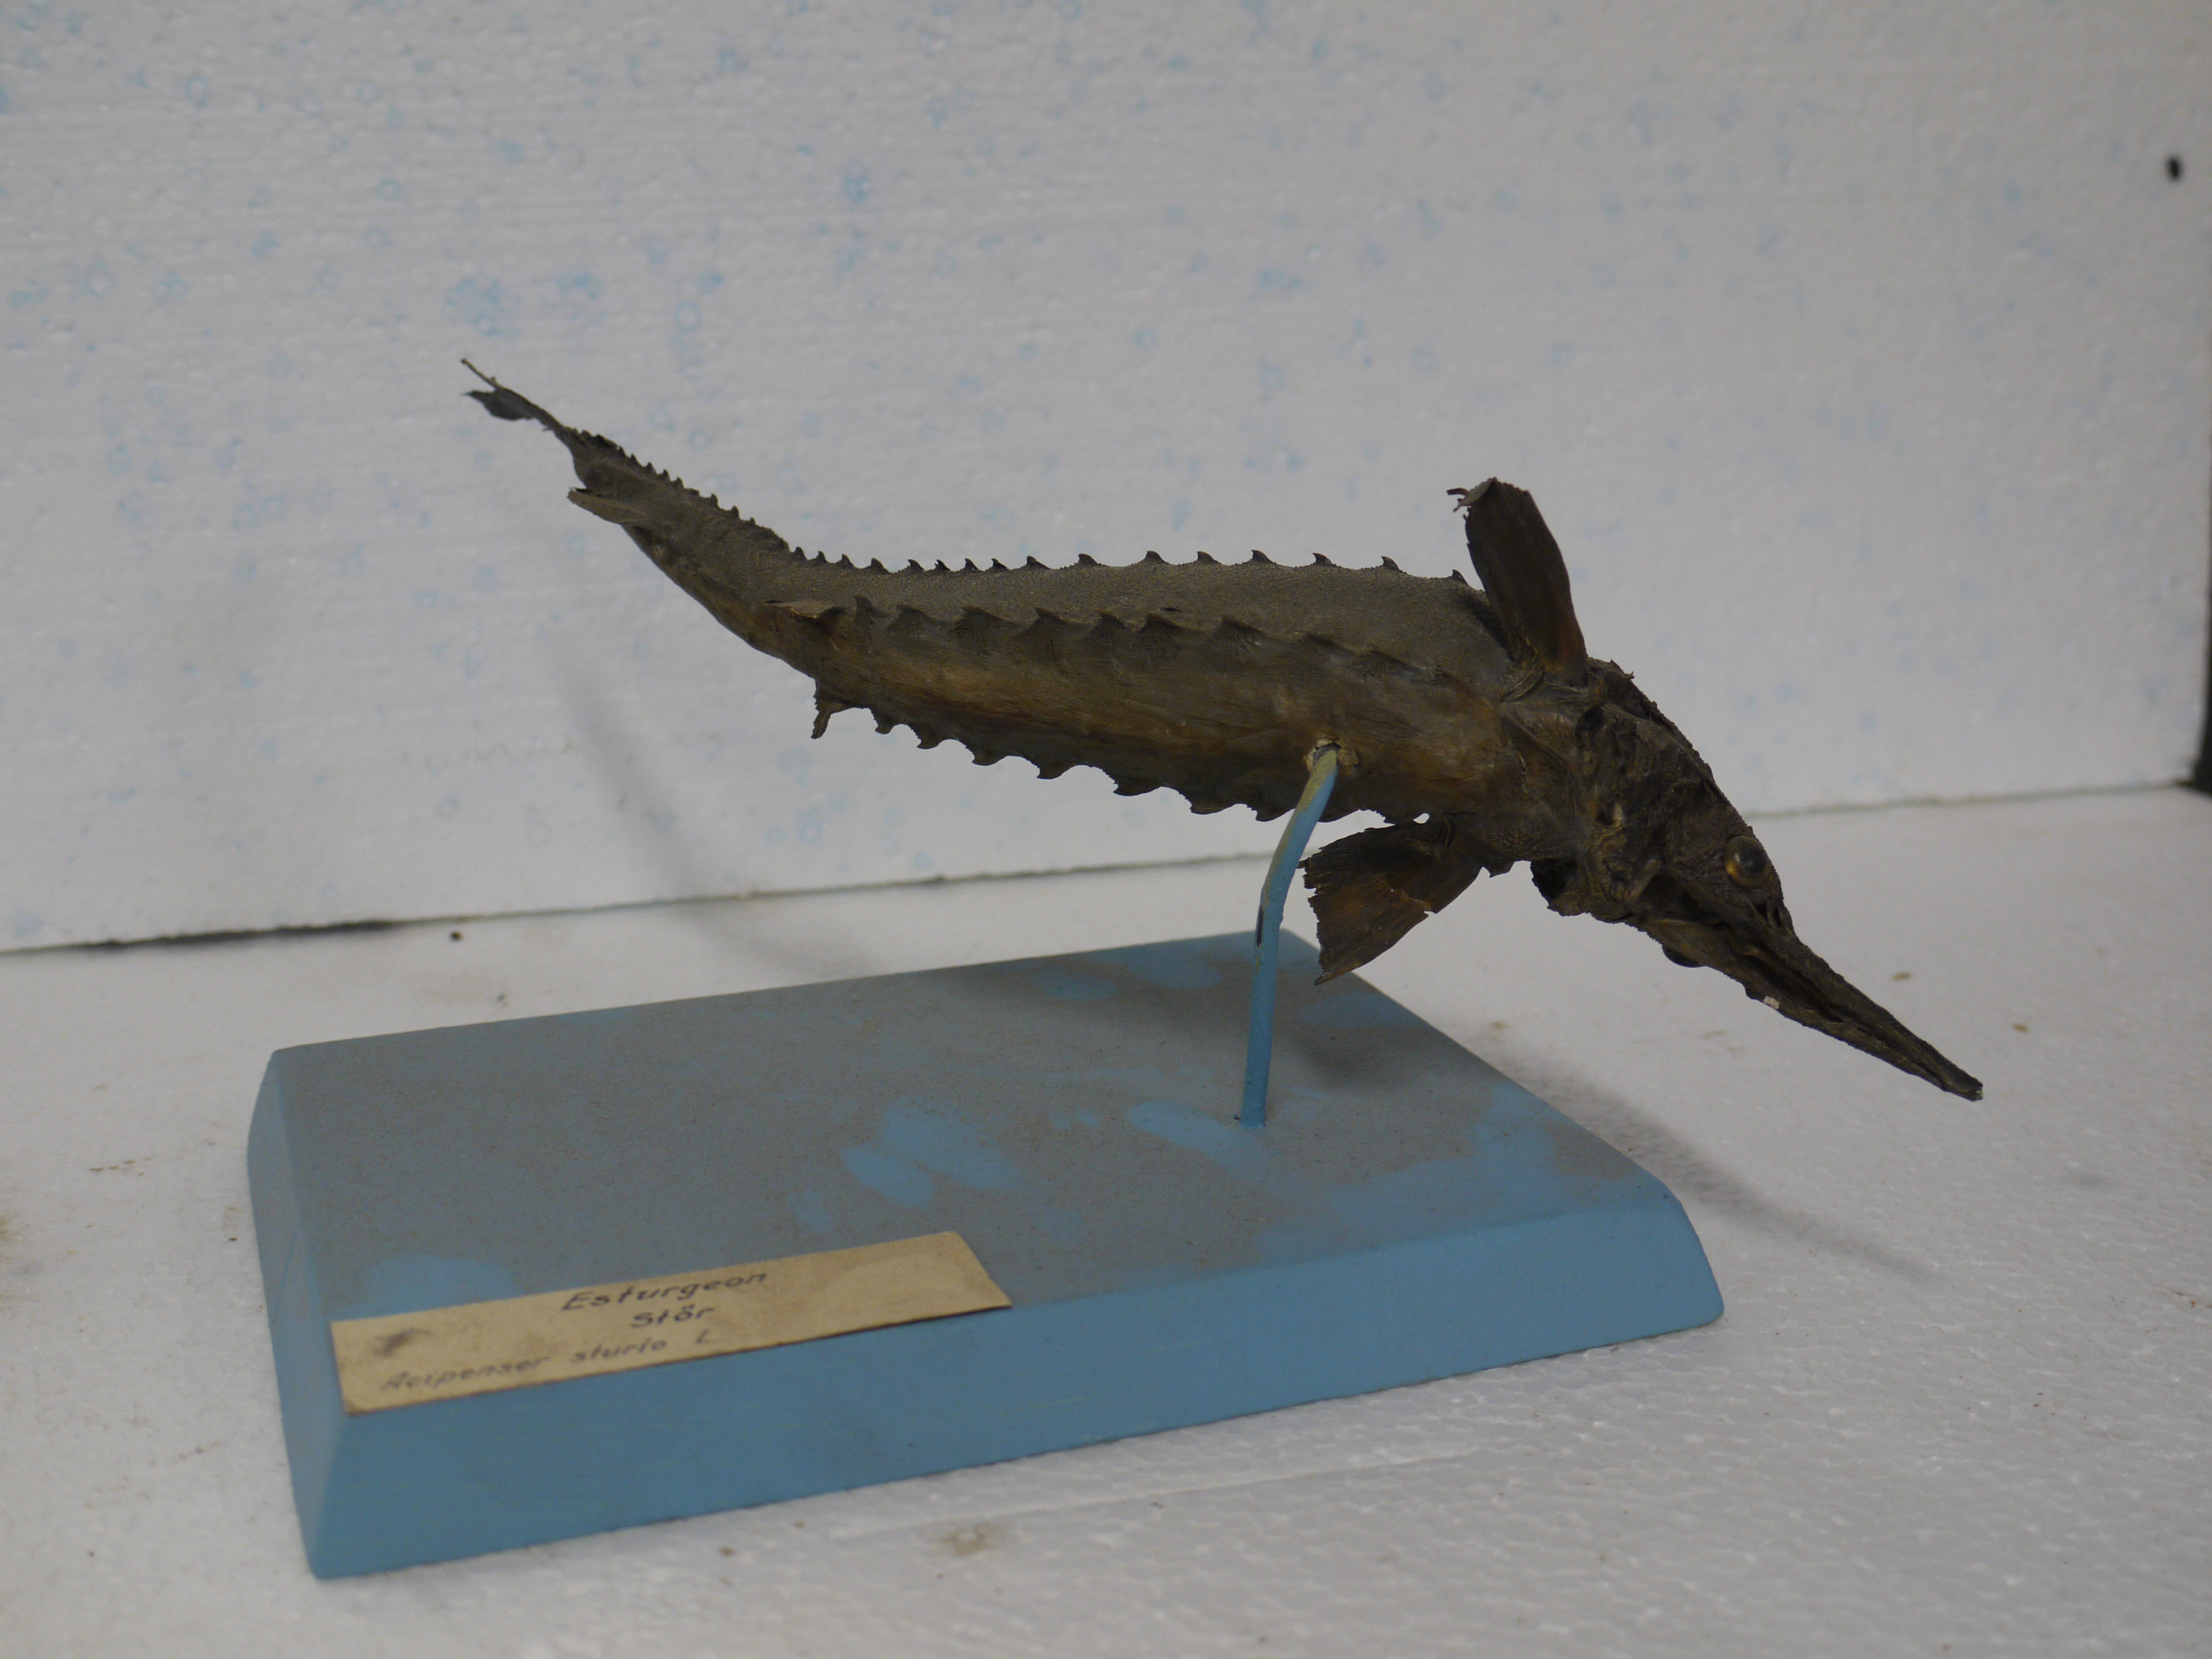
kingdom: Animalia
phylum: Chordata
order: Acipenseriformes
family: Acipenseridae
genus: Acipenser
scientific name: Acipenser sturio
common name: Sturgeon
